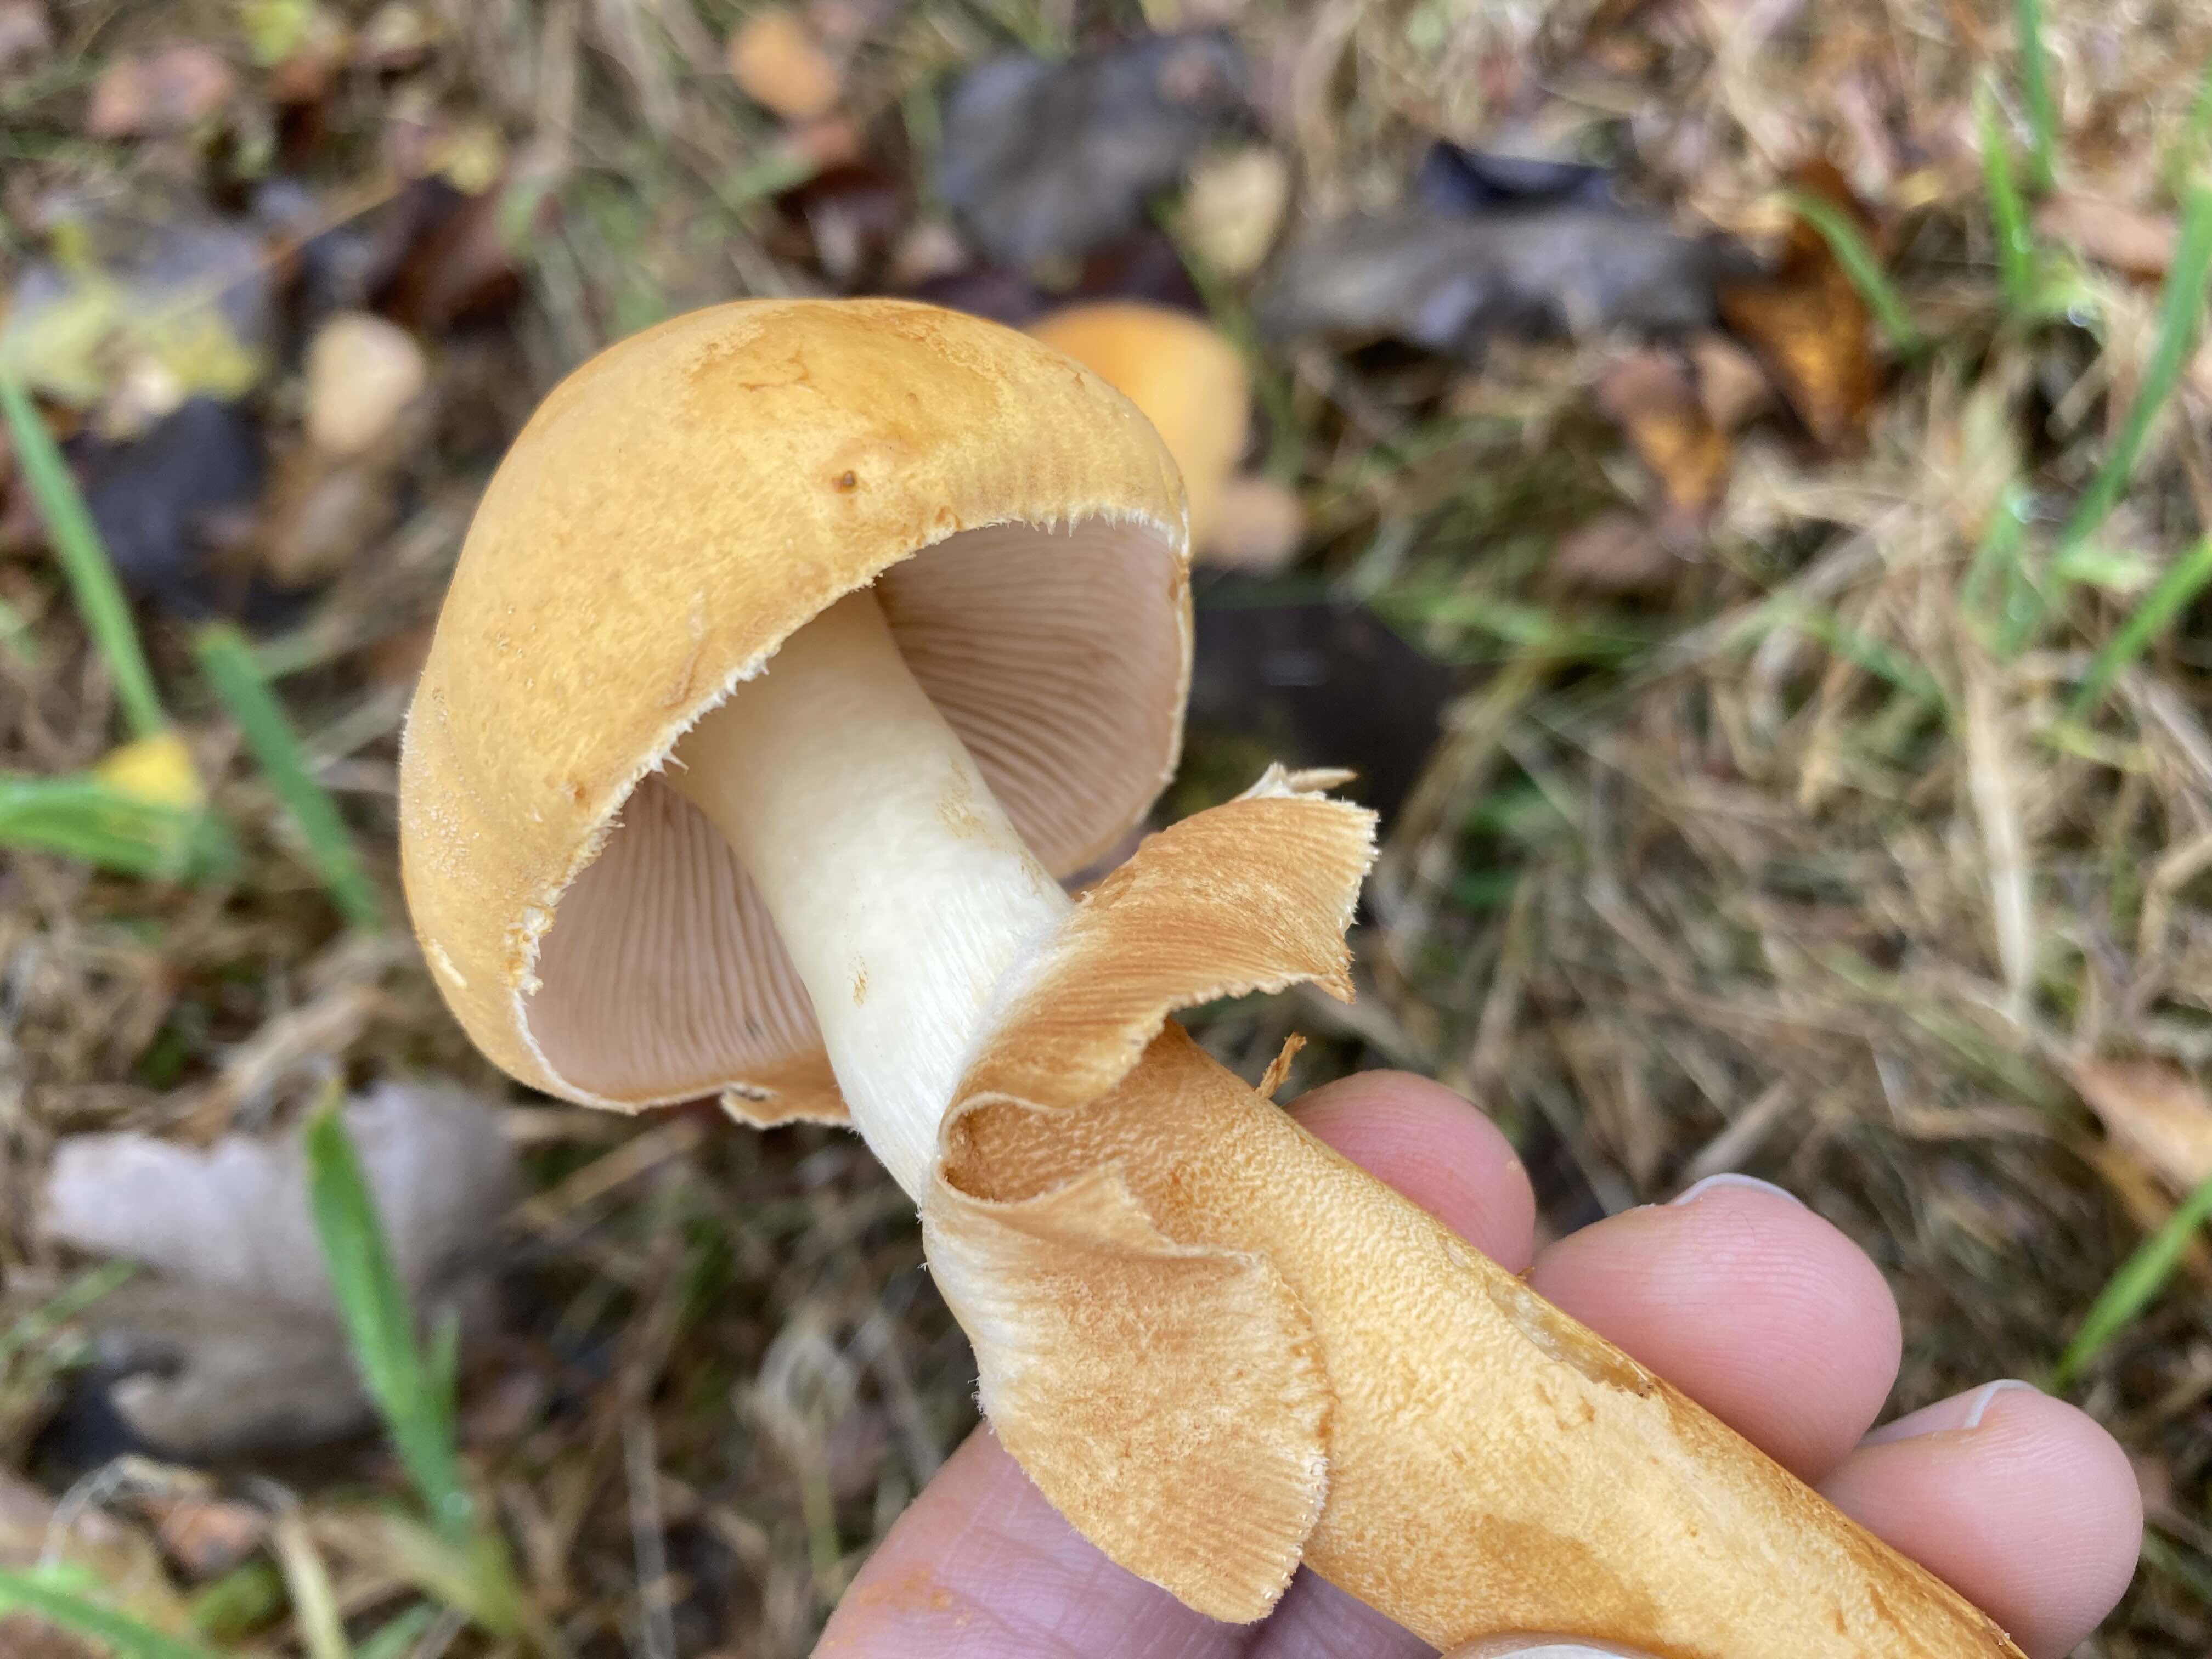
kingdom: Fungi
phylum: Basidiomycota
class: Agaricomycetes
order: Agaricales
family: Tricholomataceae
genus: Phaeolepiota
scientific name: Phaeolepiota aurea
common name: gyldenhat
